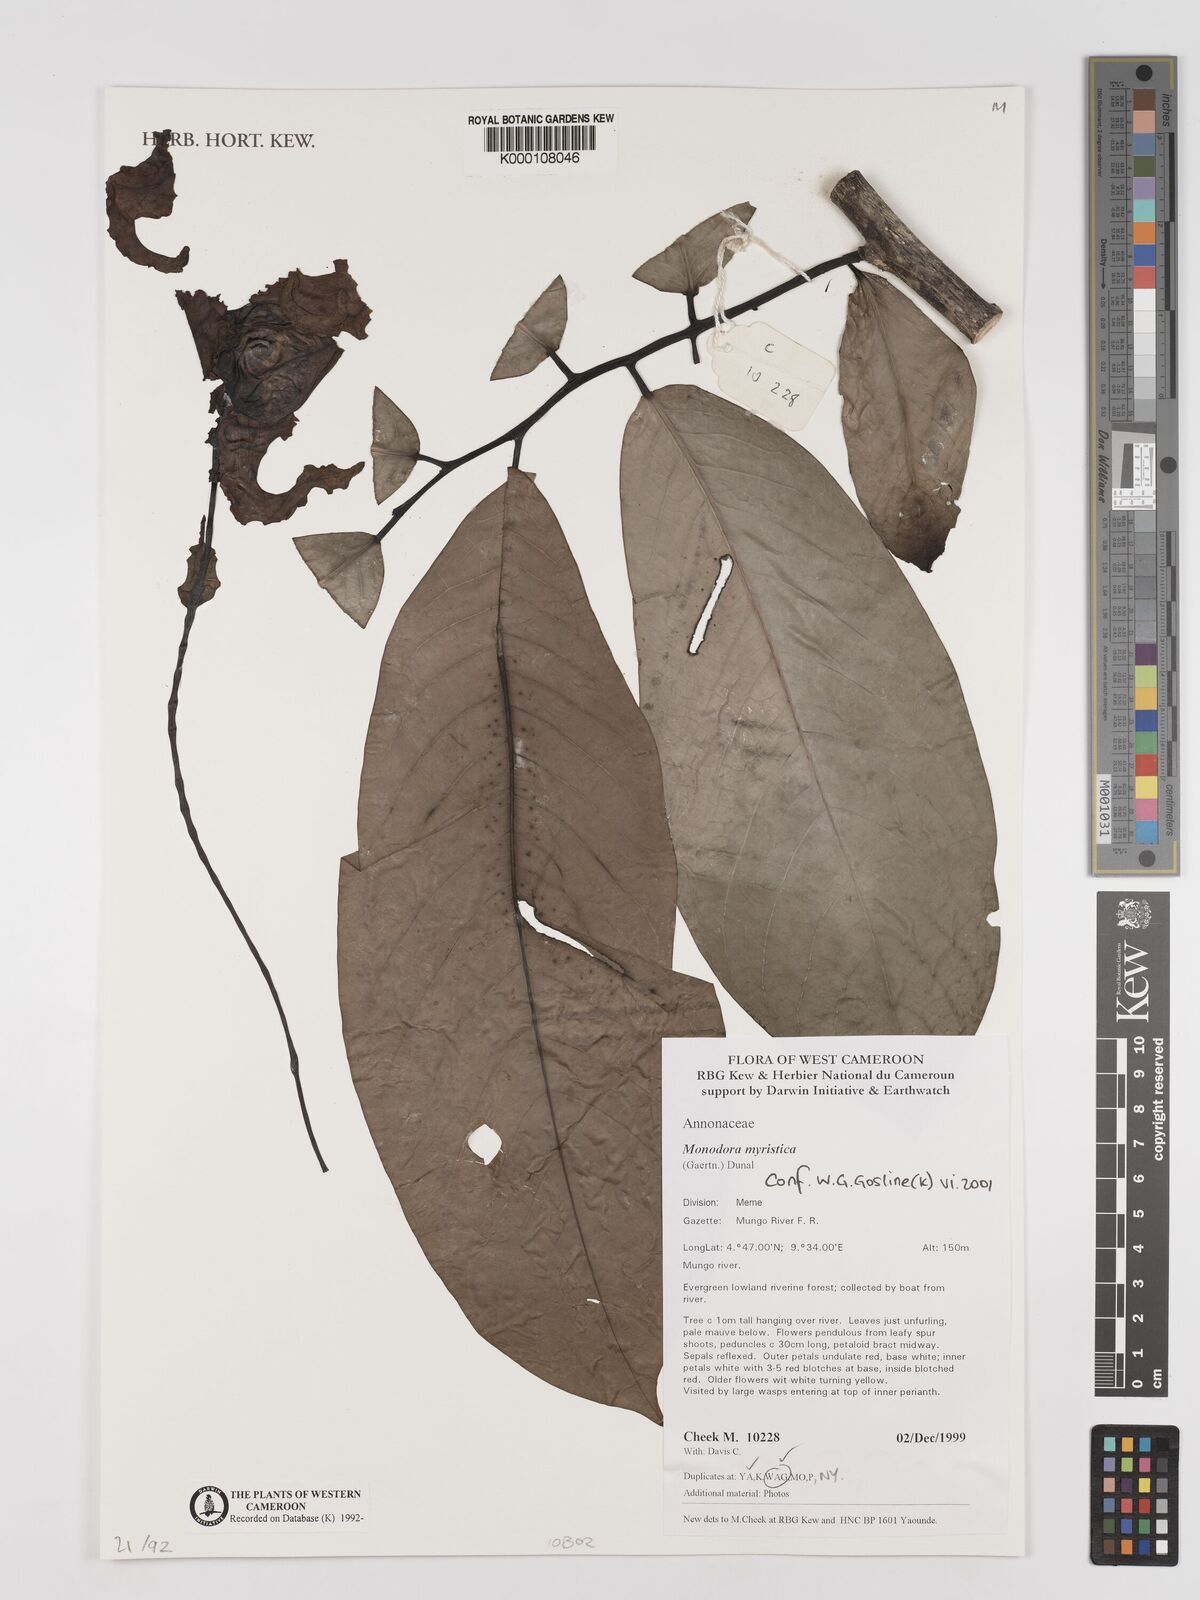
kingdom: Plantae
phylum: Tracheophyta
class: Magnoliopsida
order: Magnoliales
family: Annonaceae
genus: Monodora
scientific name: Monodora myristica
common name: African nutmeg
